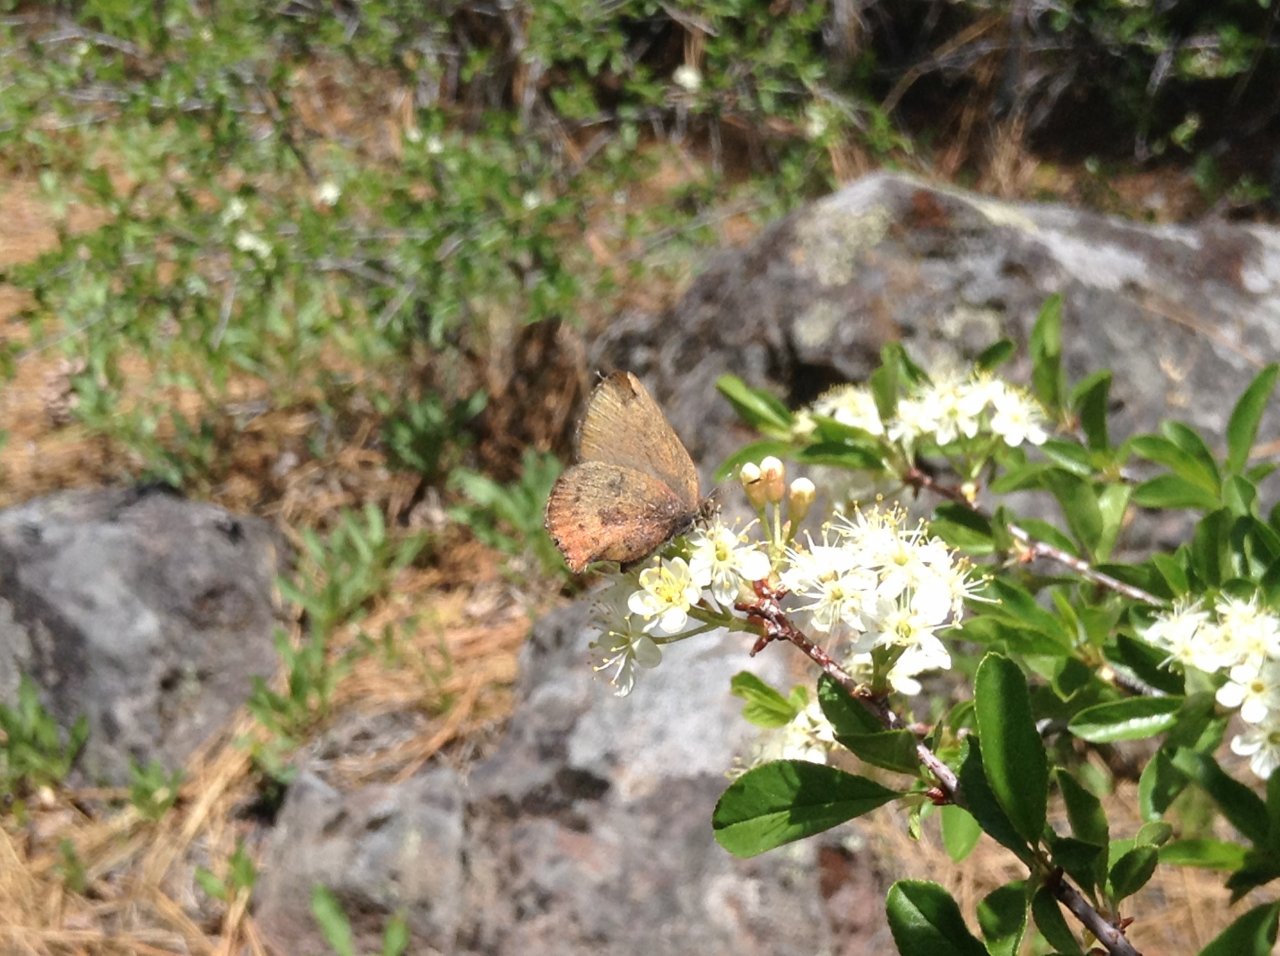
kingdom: Animalia
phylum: Arthropoda
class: Insecta
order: Lepidoptera
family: Lycaenidae
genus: Incisalia
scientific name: Incisalia irioides
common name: Brown Elfin
